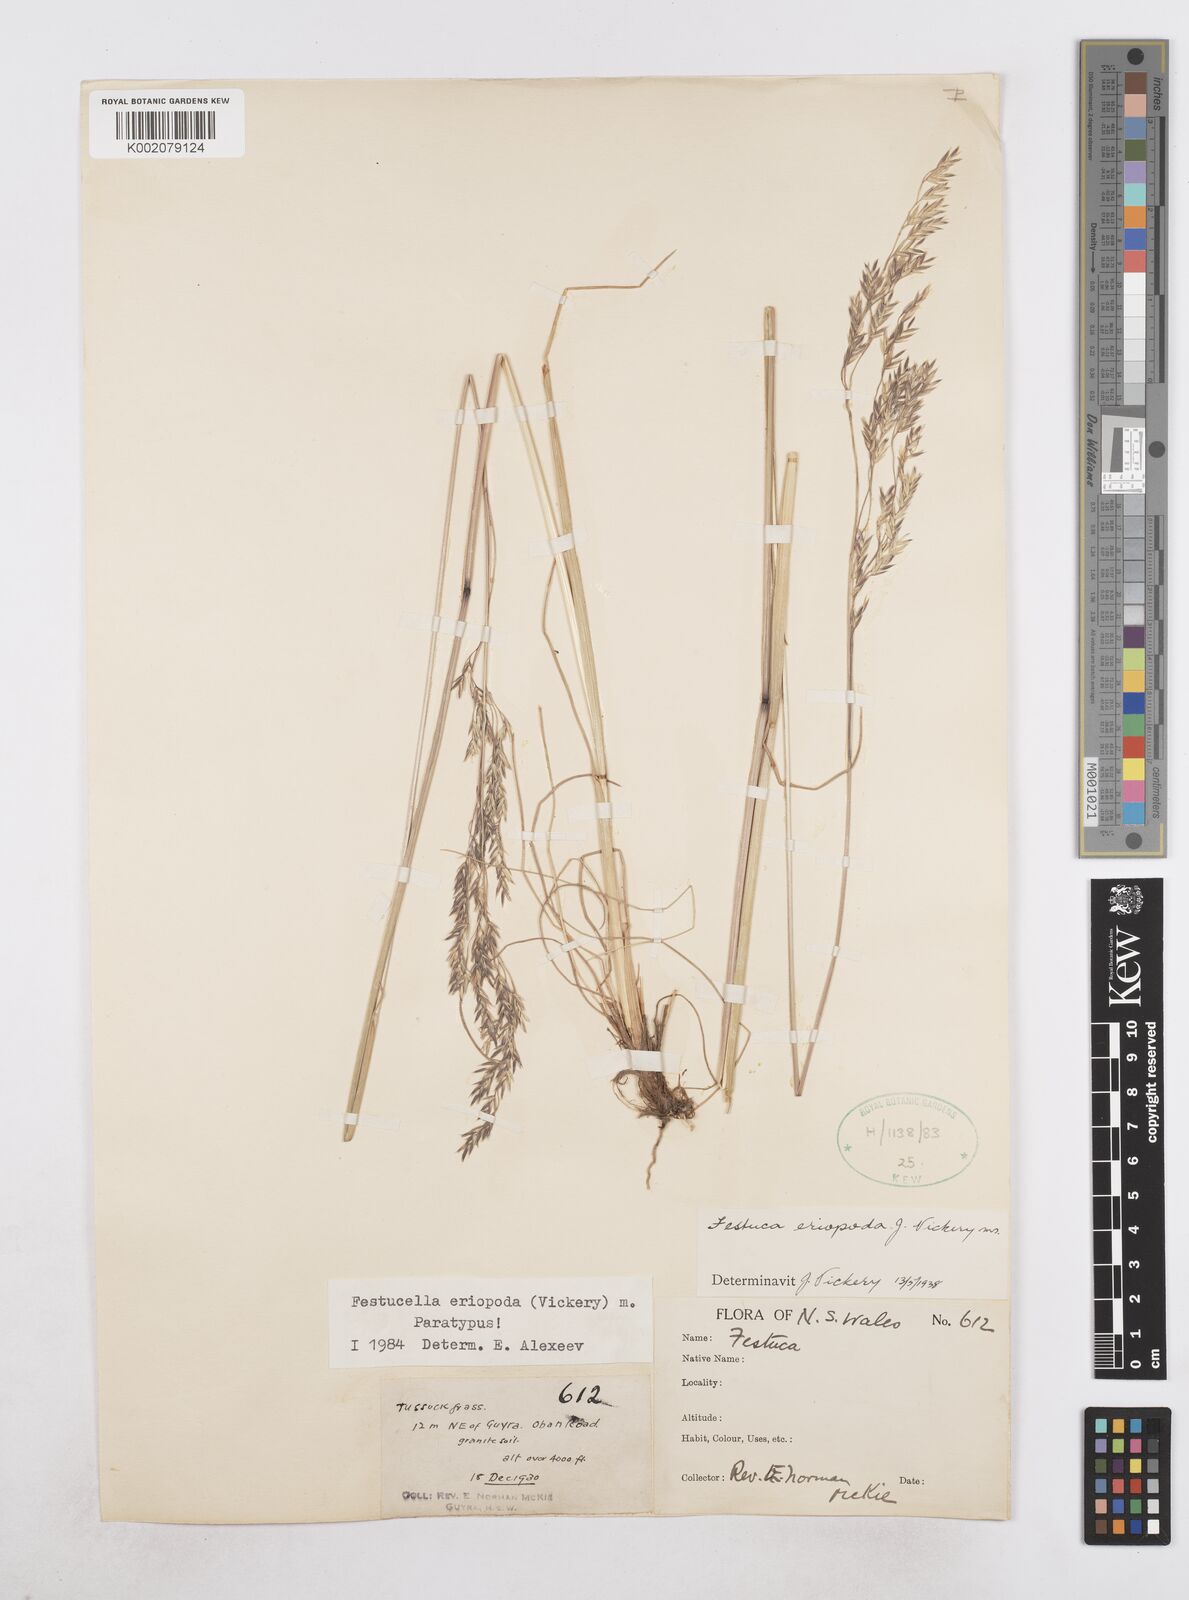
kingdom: Plantae
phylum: Tracheophyta
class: Liliopsida
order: Poales
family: Poaceae
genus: Hookerochloa
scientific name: Hookerochloa eriopoda
